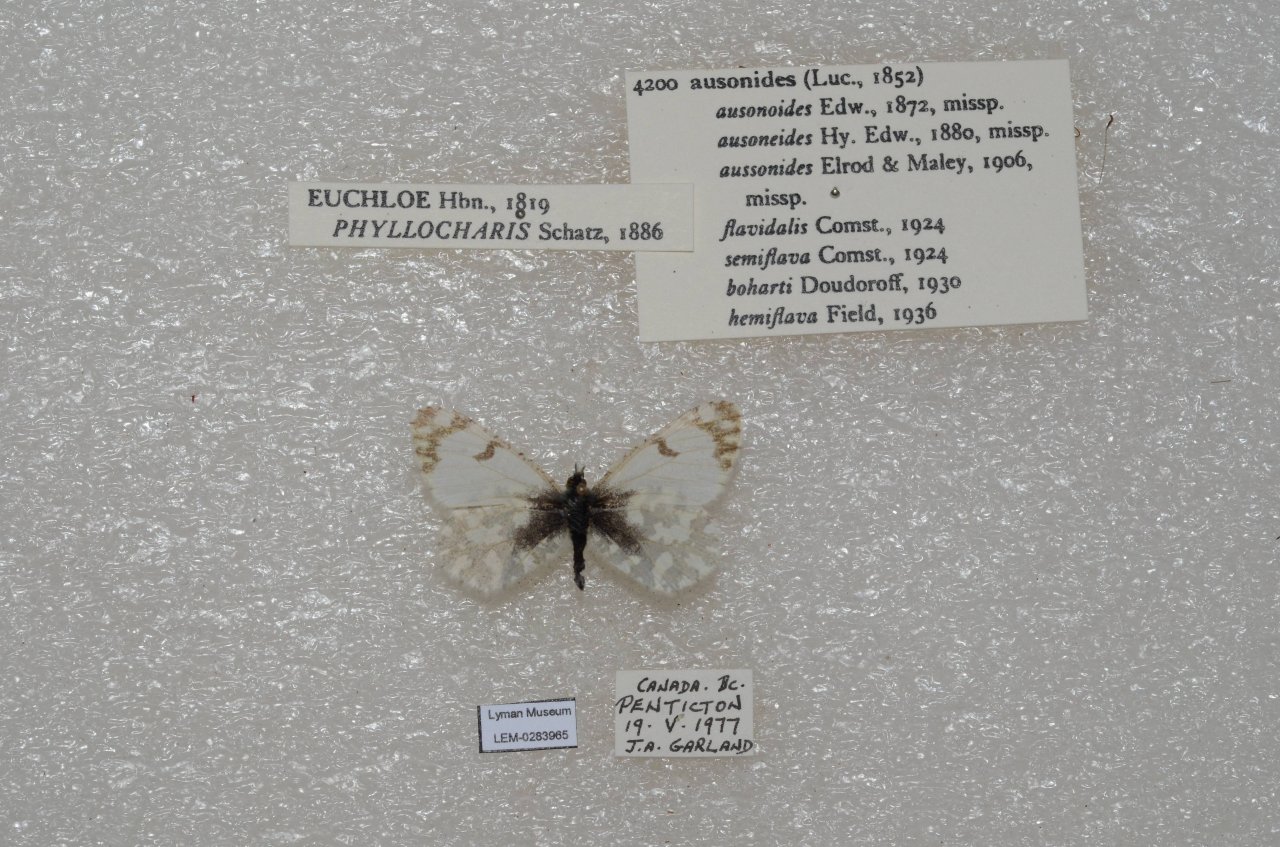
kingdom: Animalia
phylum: Arthropoda
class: Insecta
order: Lepidoptera
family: Pieridae
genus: Euchloe
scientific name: Euchloe ausonides
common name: Large Marble
